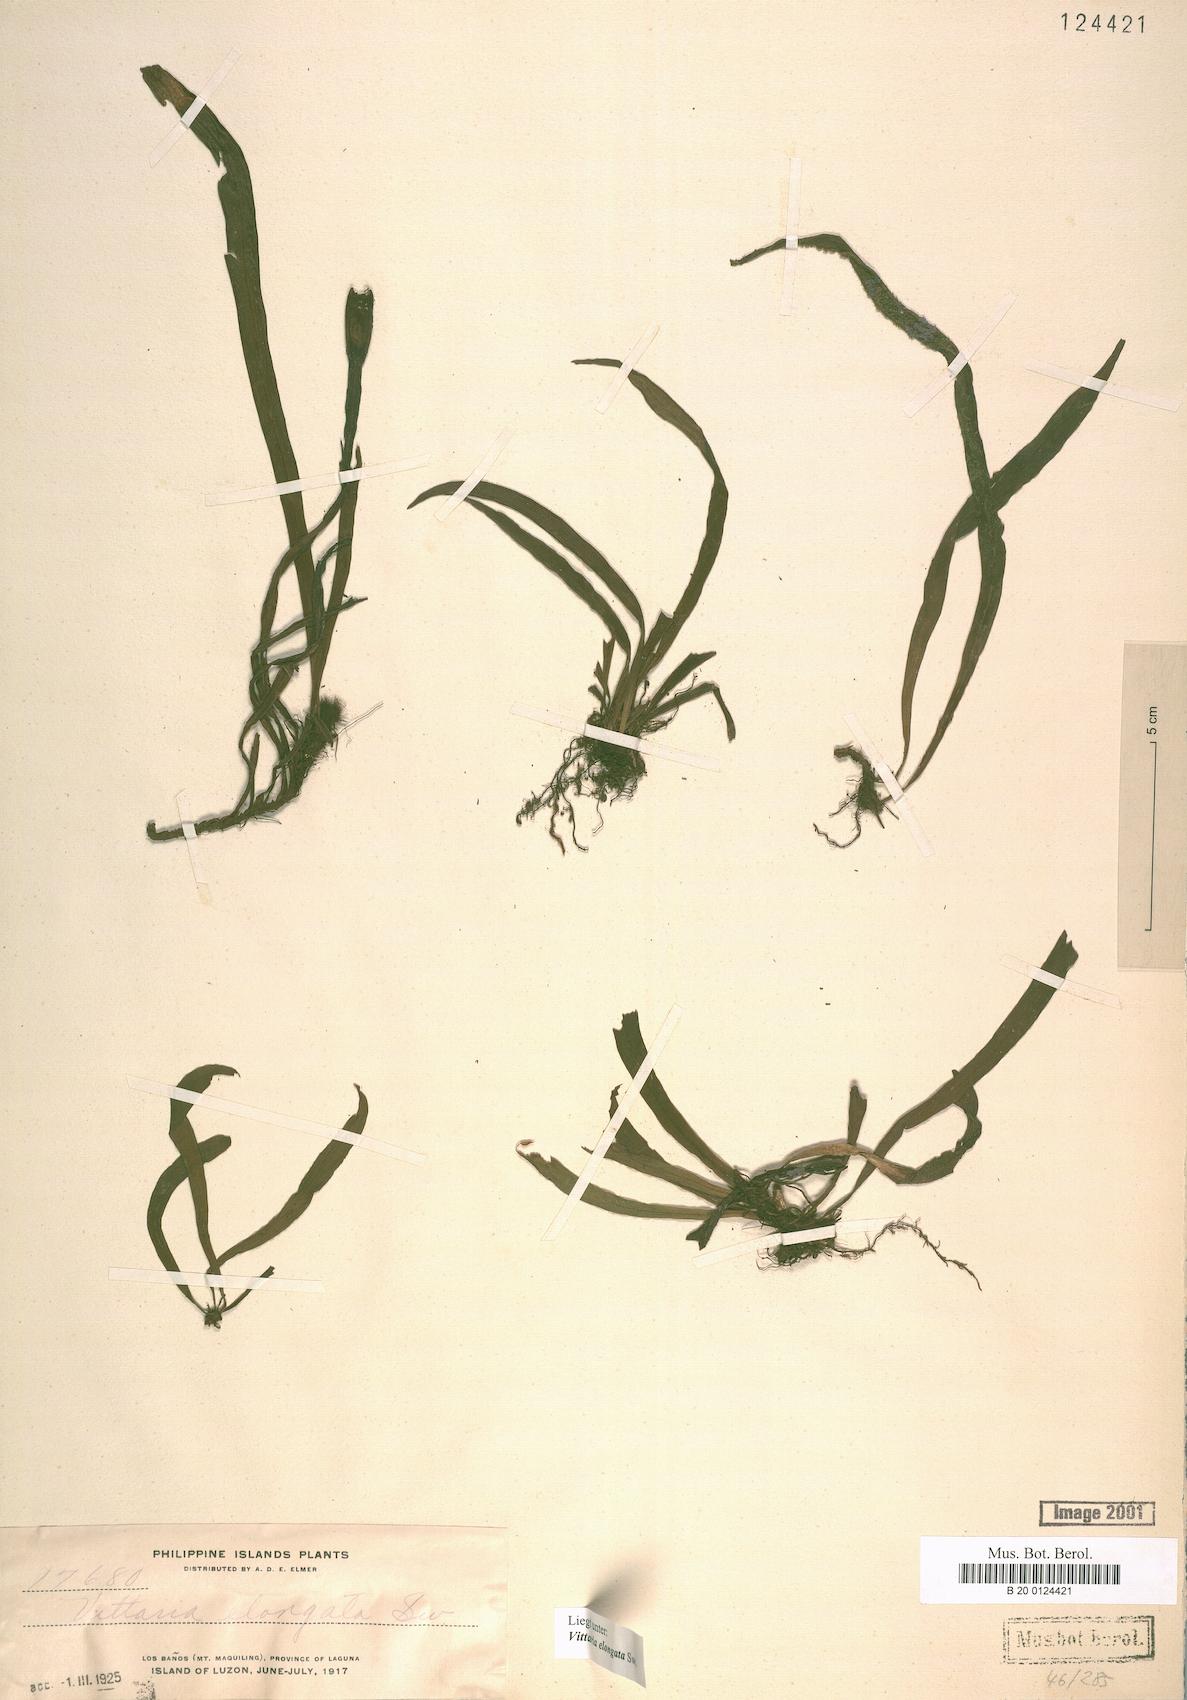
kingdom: Plantae
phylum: Tracheophyta
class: Polypodiopsida
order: Polypodiales
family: Pteridaceae
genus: Haplopteris
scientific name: Haplopteris elongata
